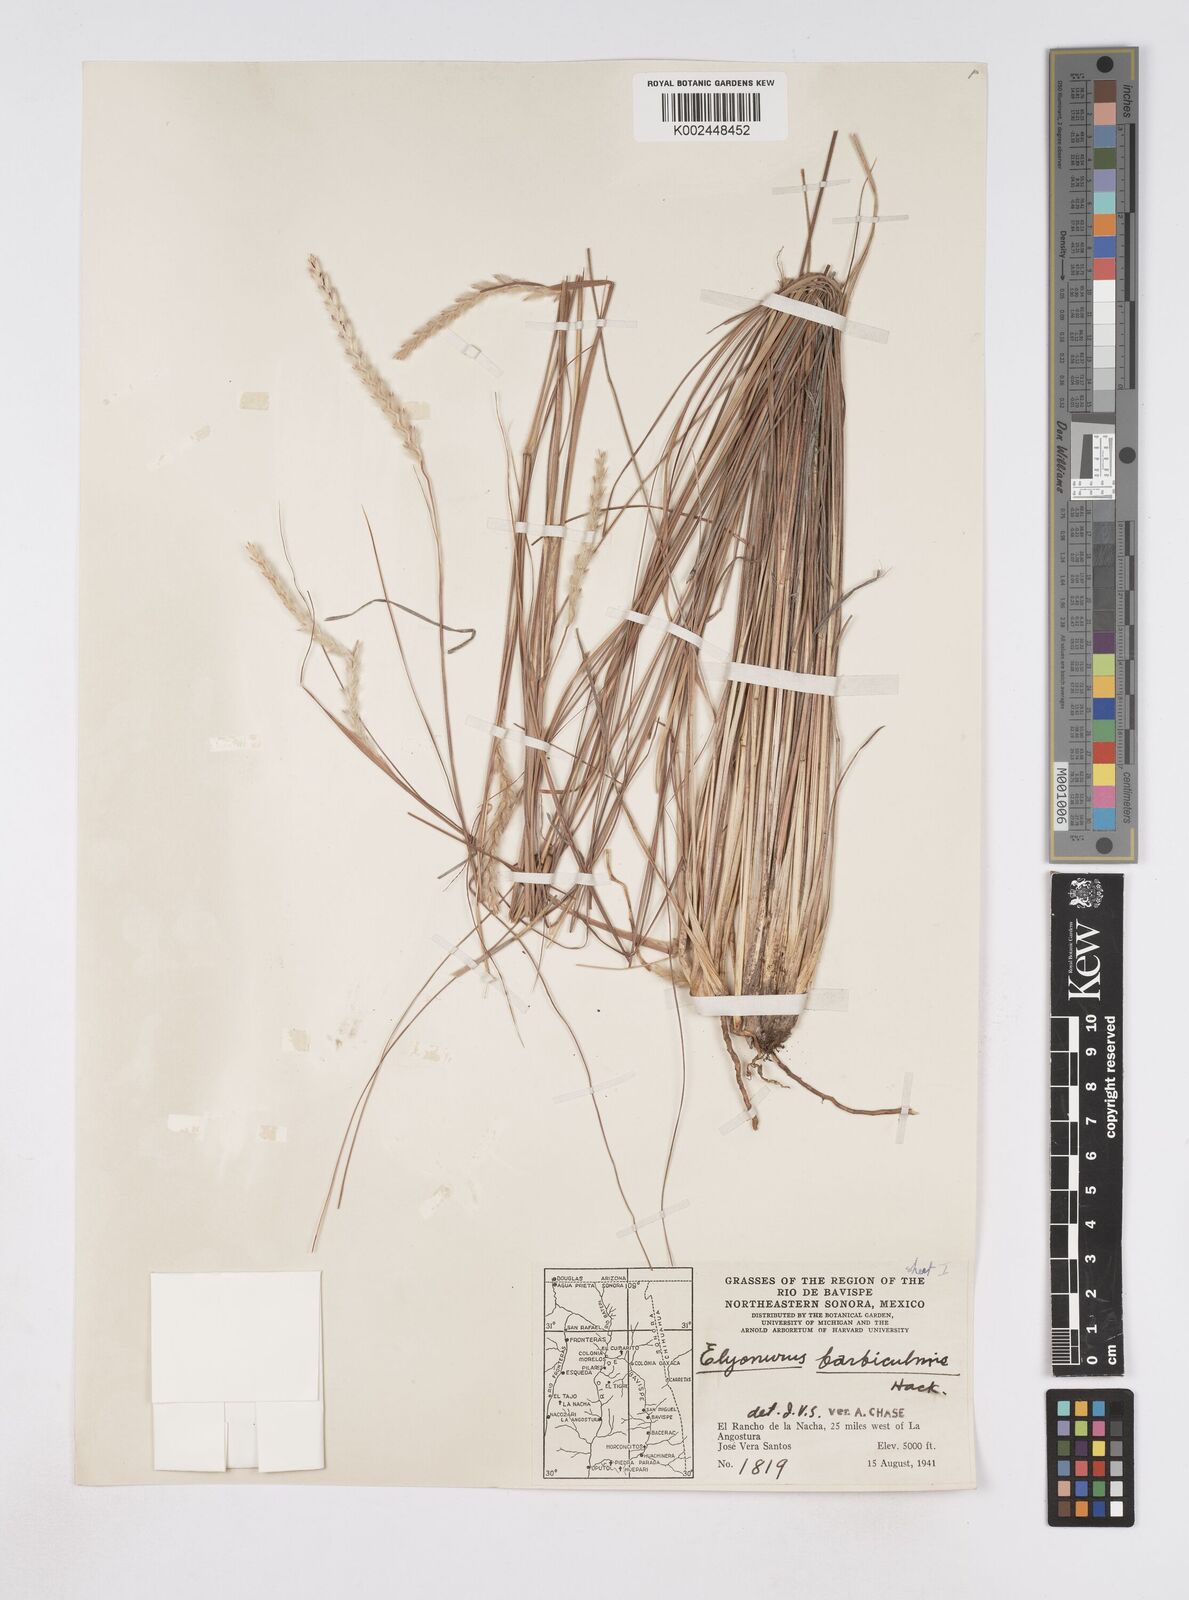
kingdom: Plantae
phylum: Tracheophyta
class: Liliopsida
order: Poales
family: Poaceae
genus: Elionurus
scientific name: Elionurus barbiculmis
